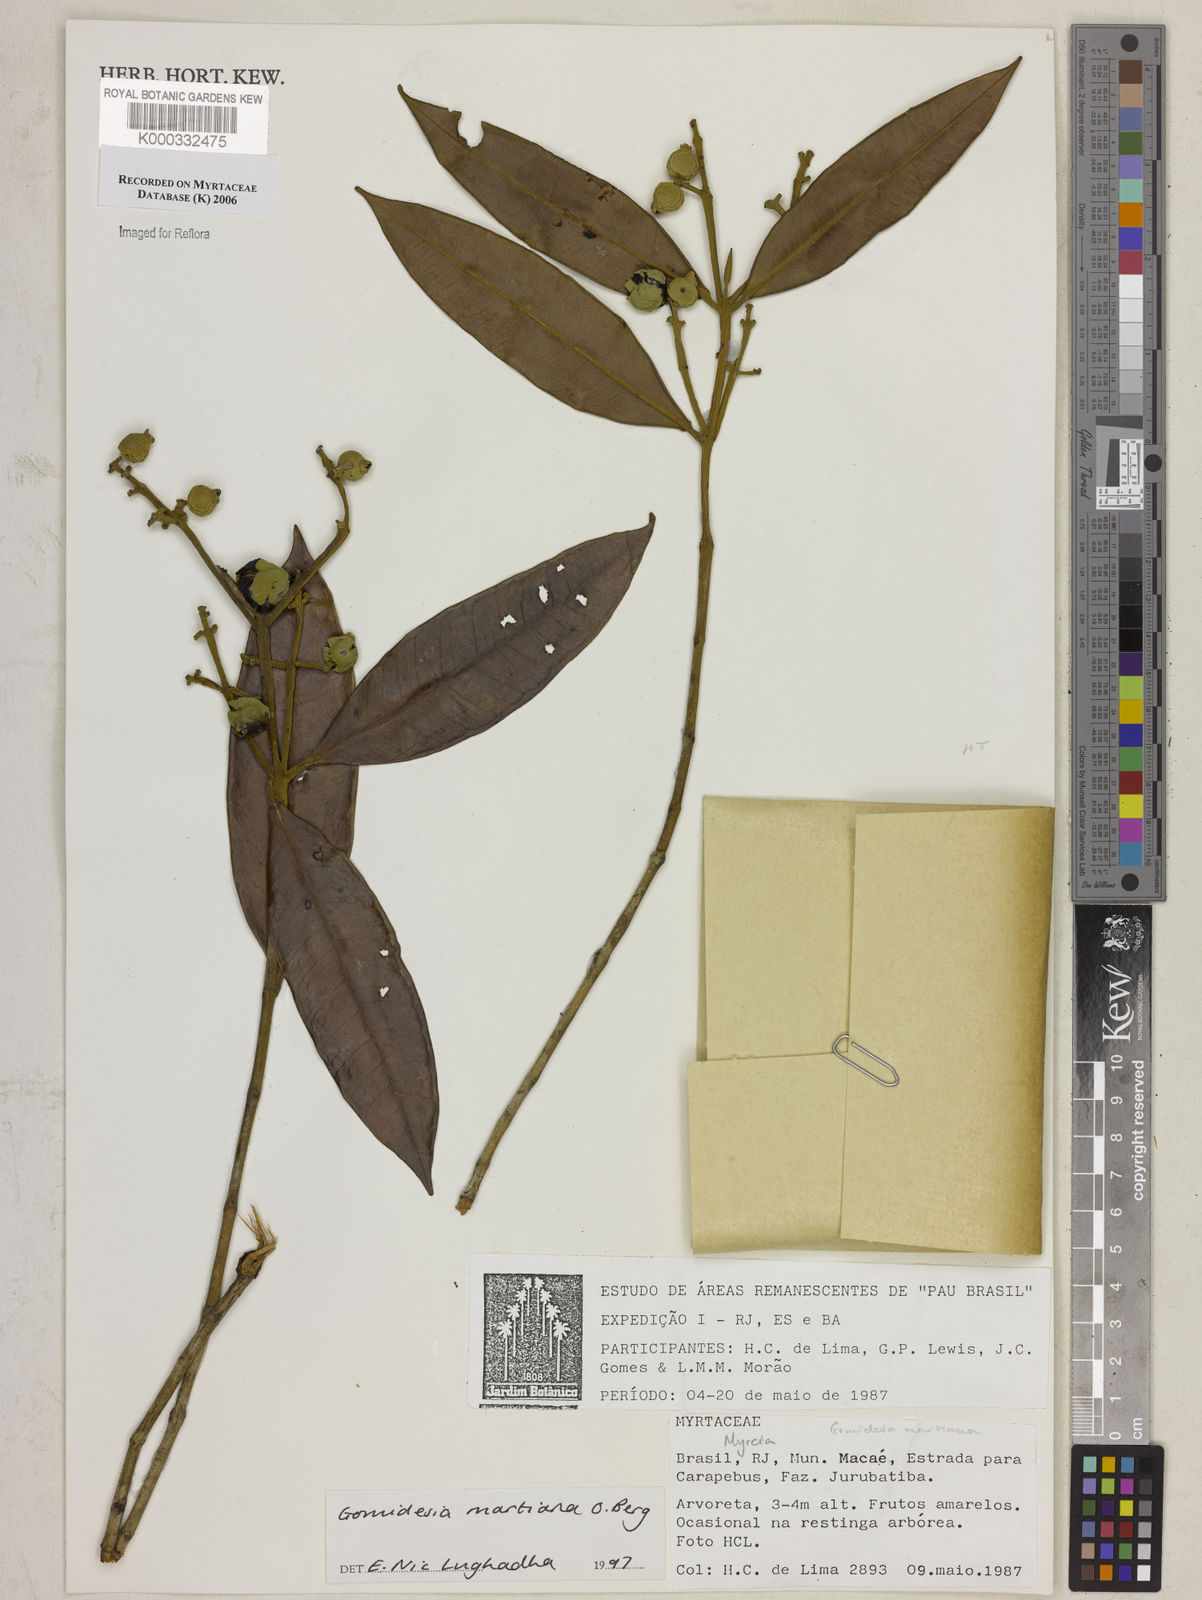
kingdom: Plantae
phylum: Tracheophyta
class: Magnoliopsida
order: Myrtales
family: Myrtaceae
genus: Myrcia
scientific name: Myrcia vittoriana
